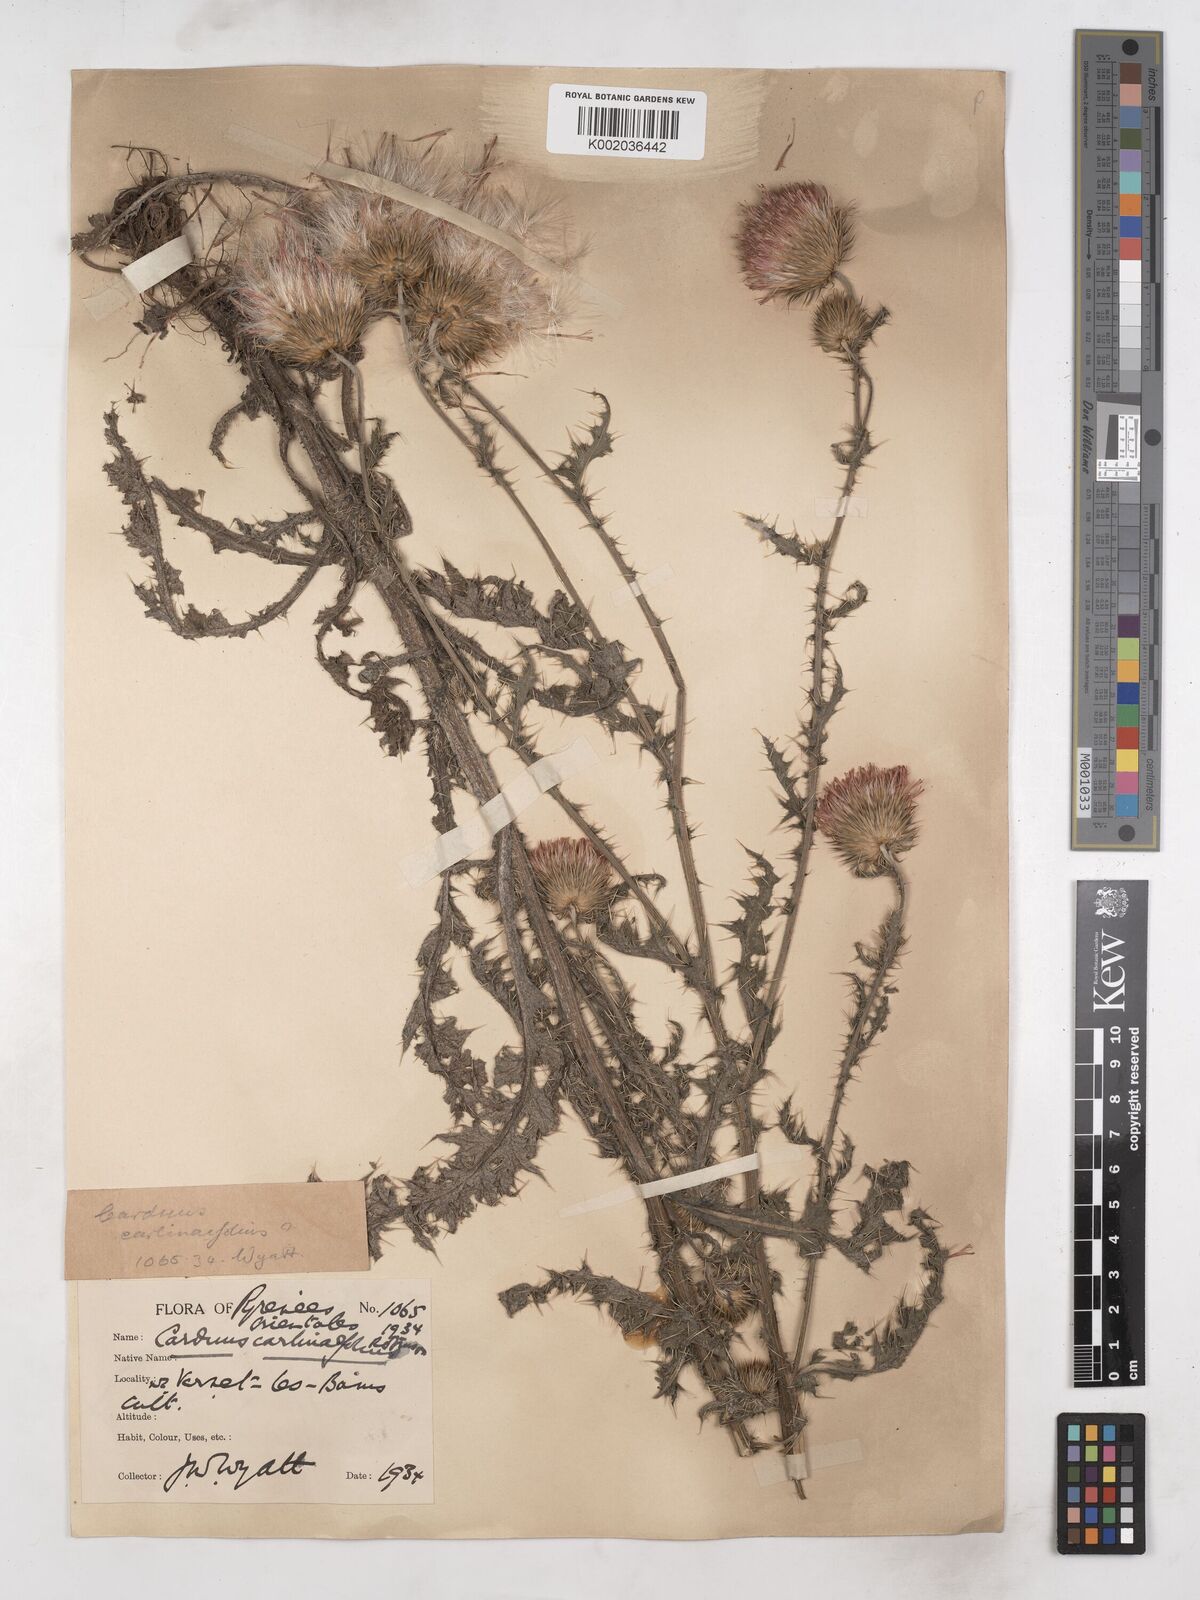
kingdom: Plantae
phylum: Tracheophyta
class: Magnoliopsida
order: Asterales
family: Asteraceae
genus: Carduus
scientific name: Carduus carlinifolius
